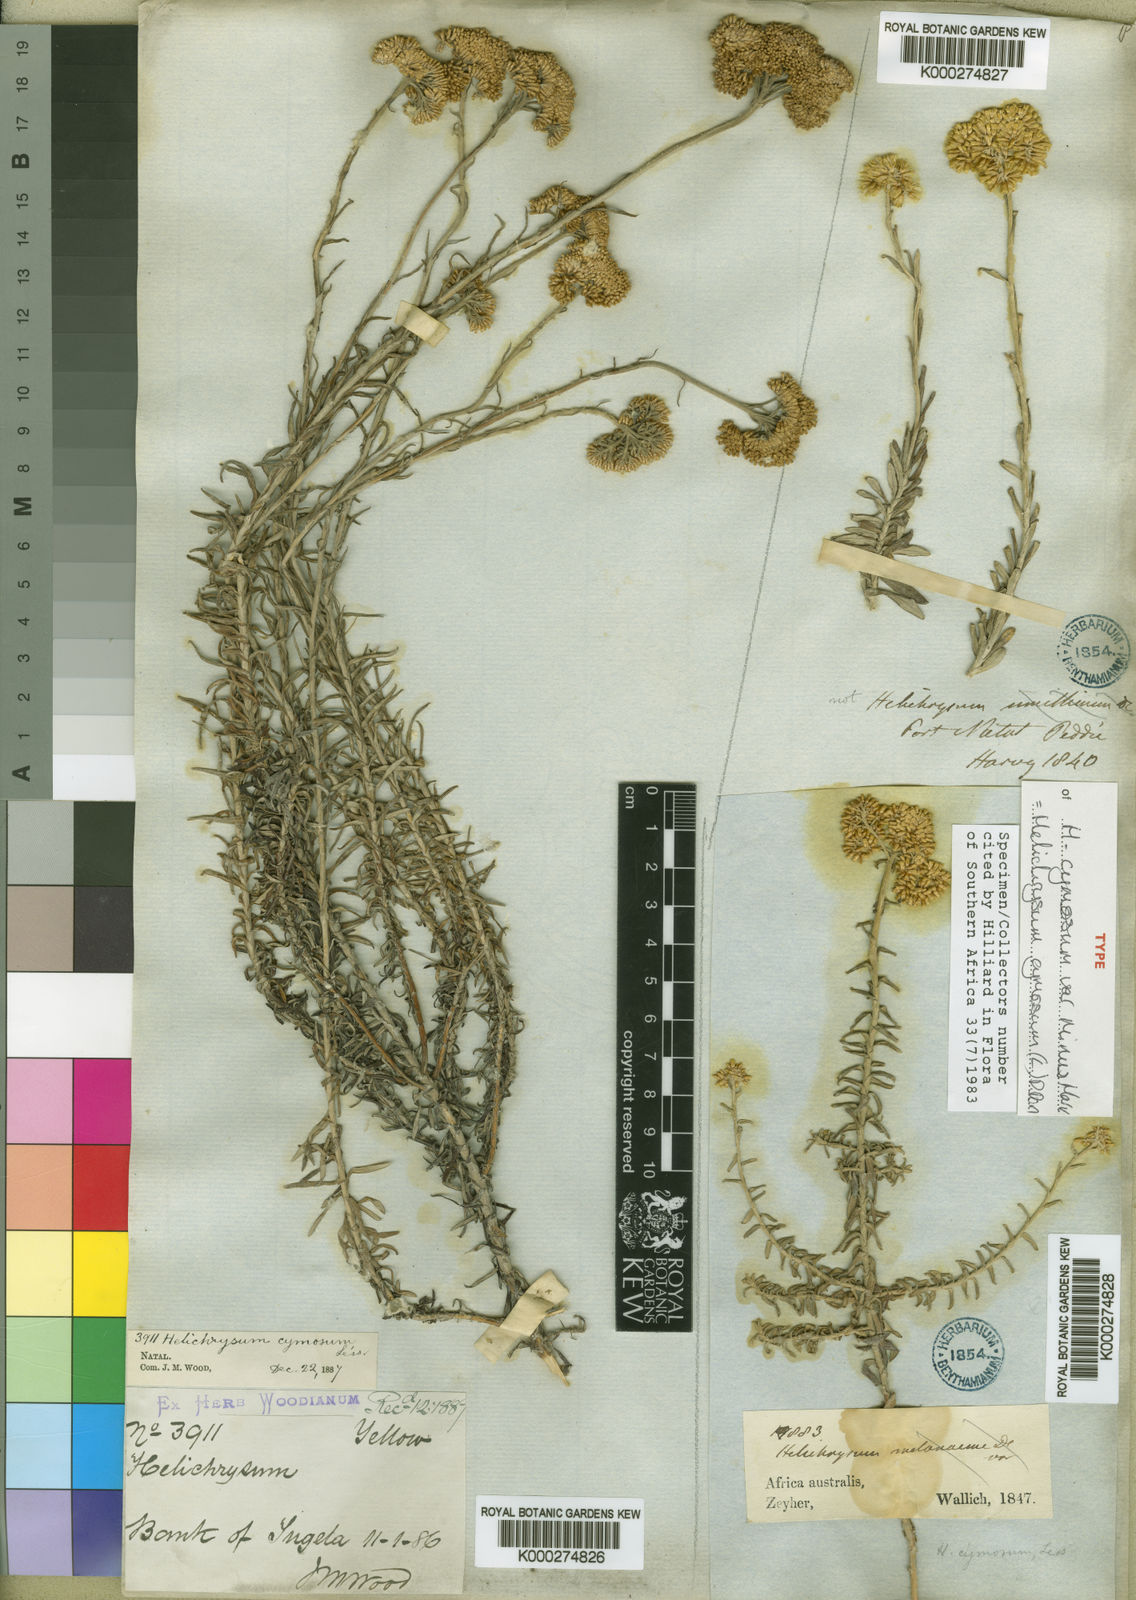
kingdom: Plantae
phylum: Tracheophyta
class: Magnoliopsida
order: Asterales
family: Asteraceae
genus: Helichrysum
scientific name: Helichrysum
